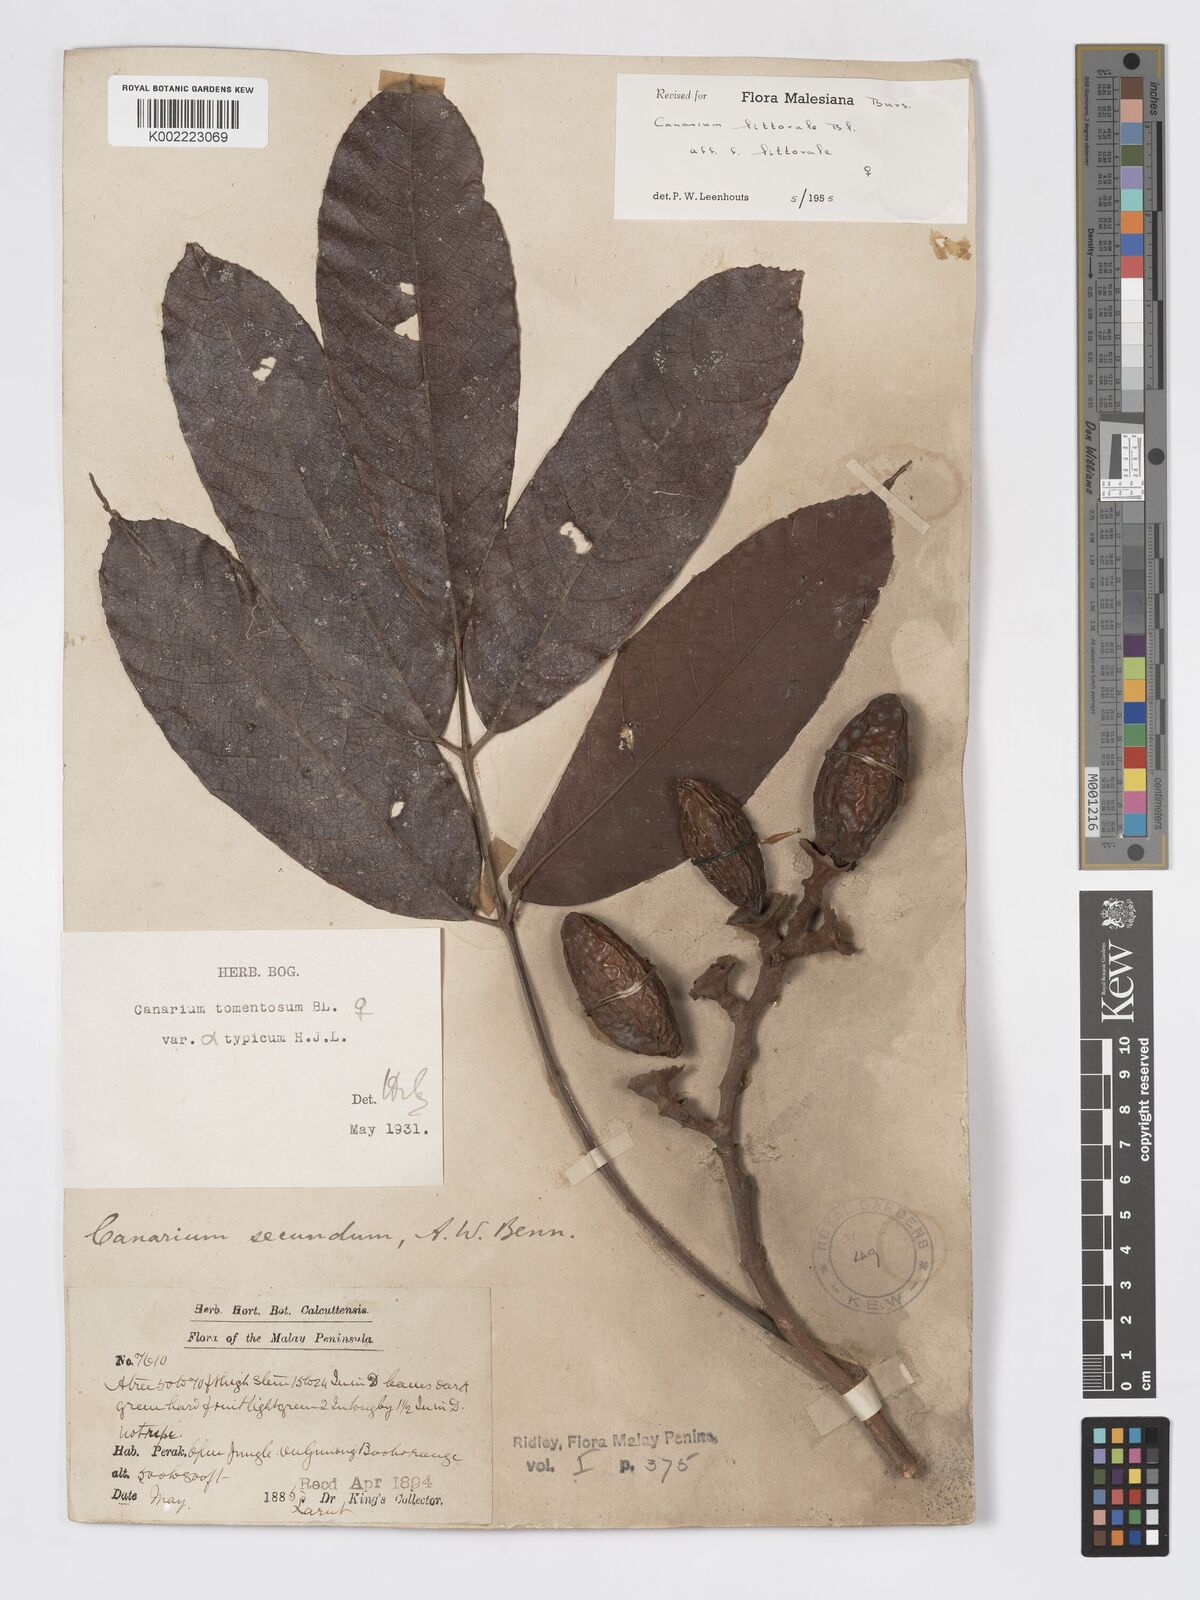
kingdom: Plantae
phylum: Tracheophyta
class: Magnoliopsida
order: Sapindales
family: Burseraceae
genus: Canarium
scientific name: Canarium littorale
